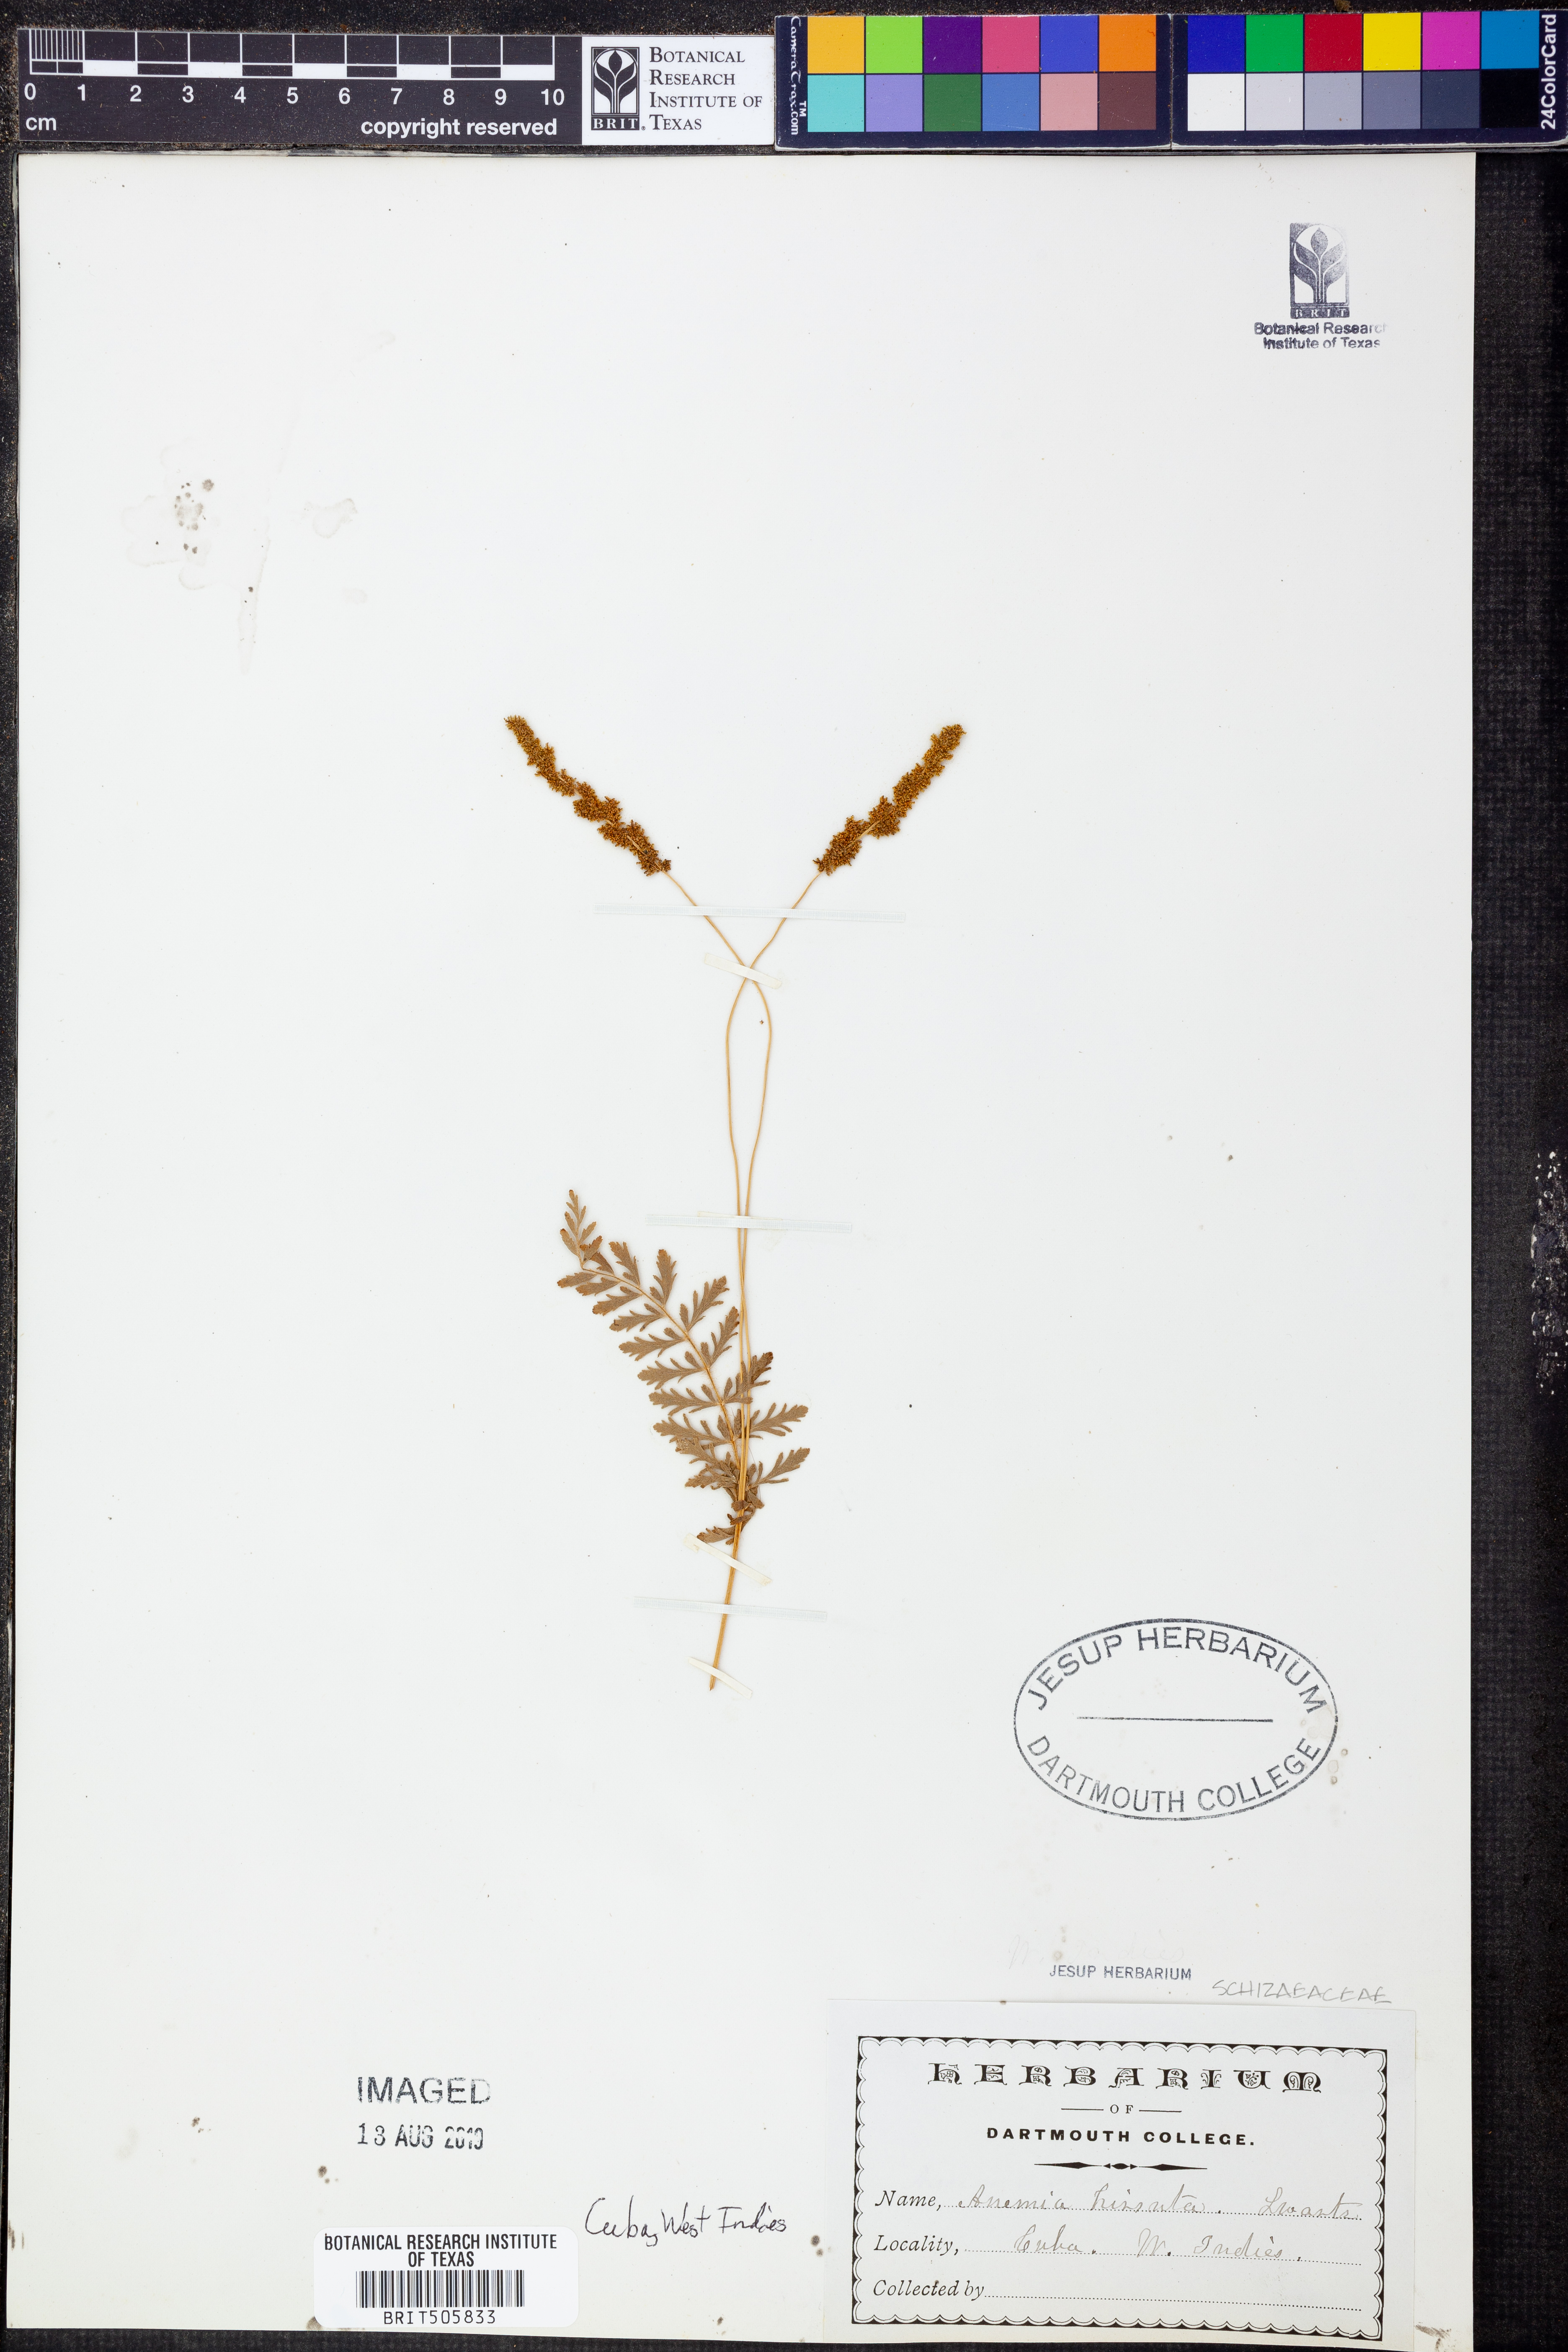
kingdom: Plantae
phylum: Tracheophyta
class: Polypodiopsida
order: Schizaeales
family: Anemiaceae
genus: Anemia
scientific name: Anemia hirsuta
